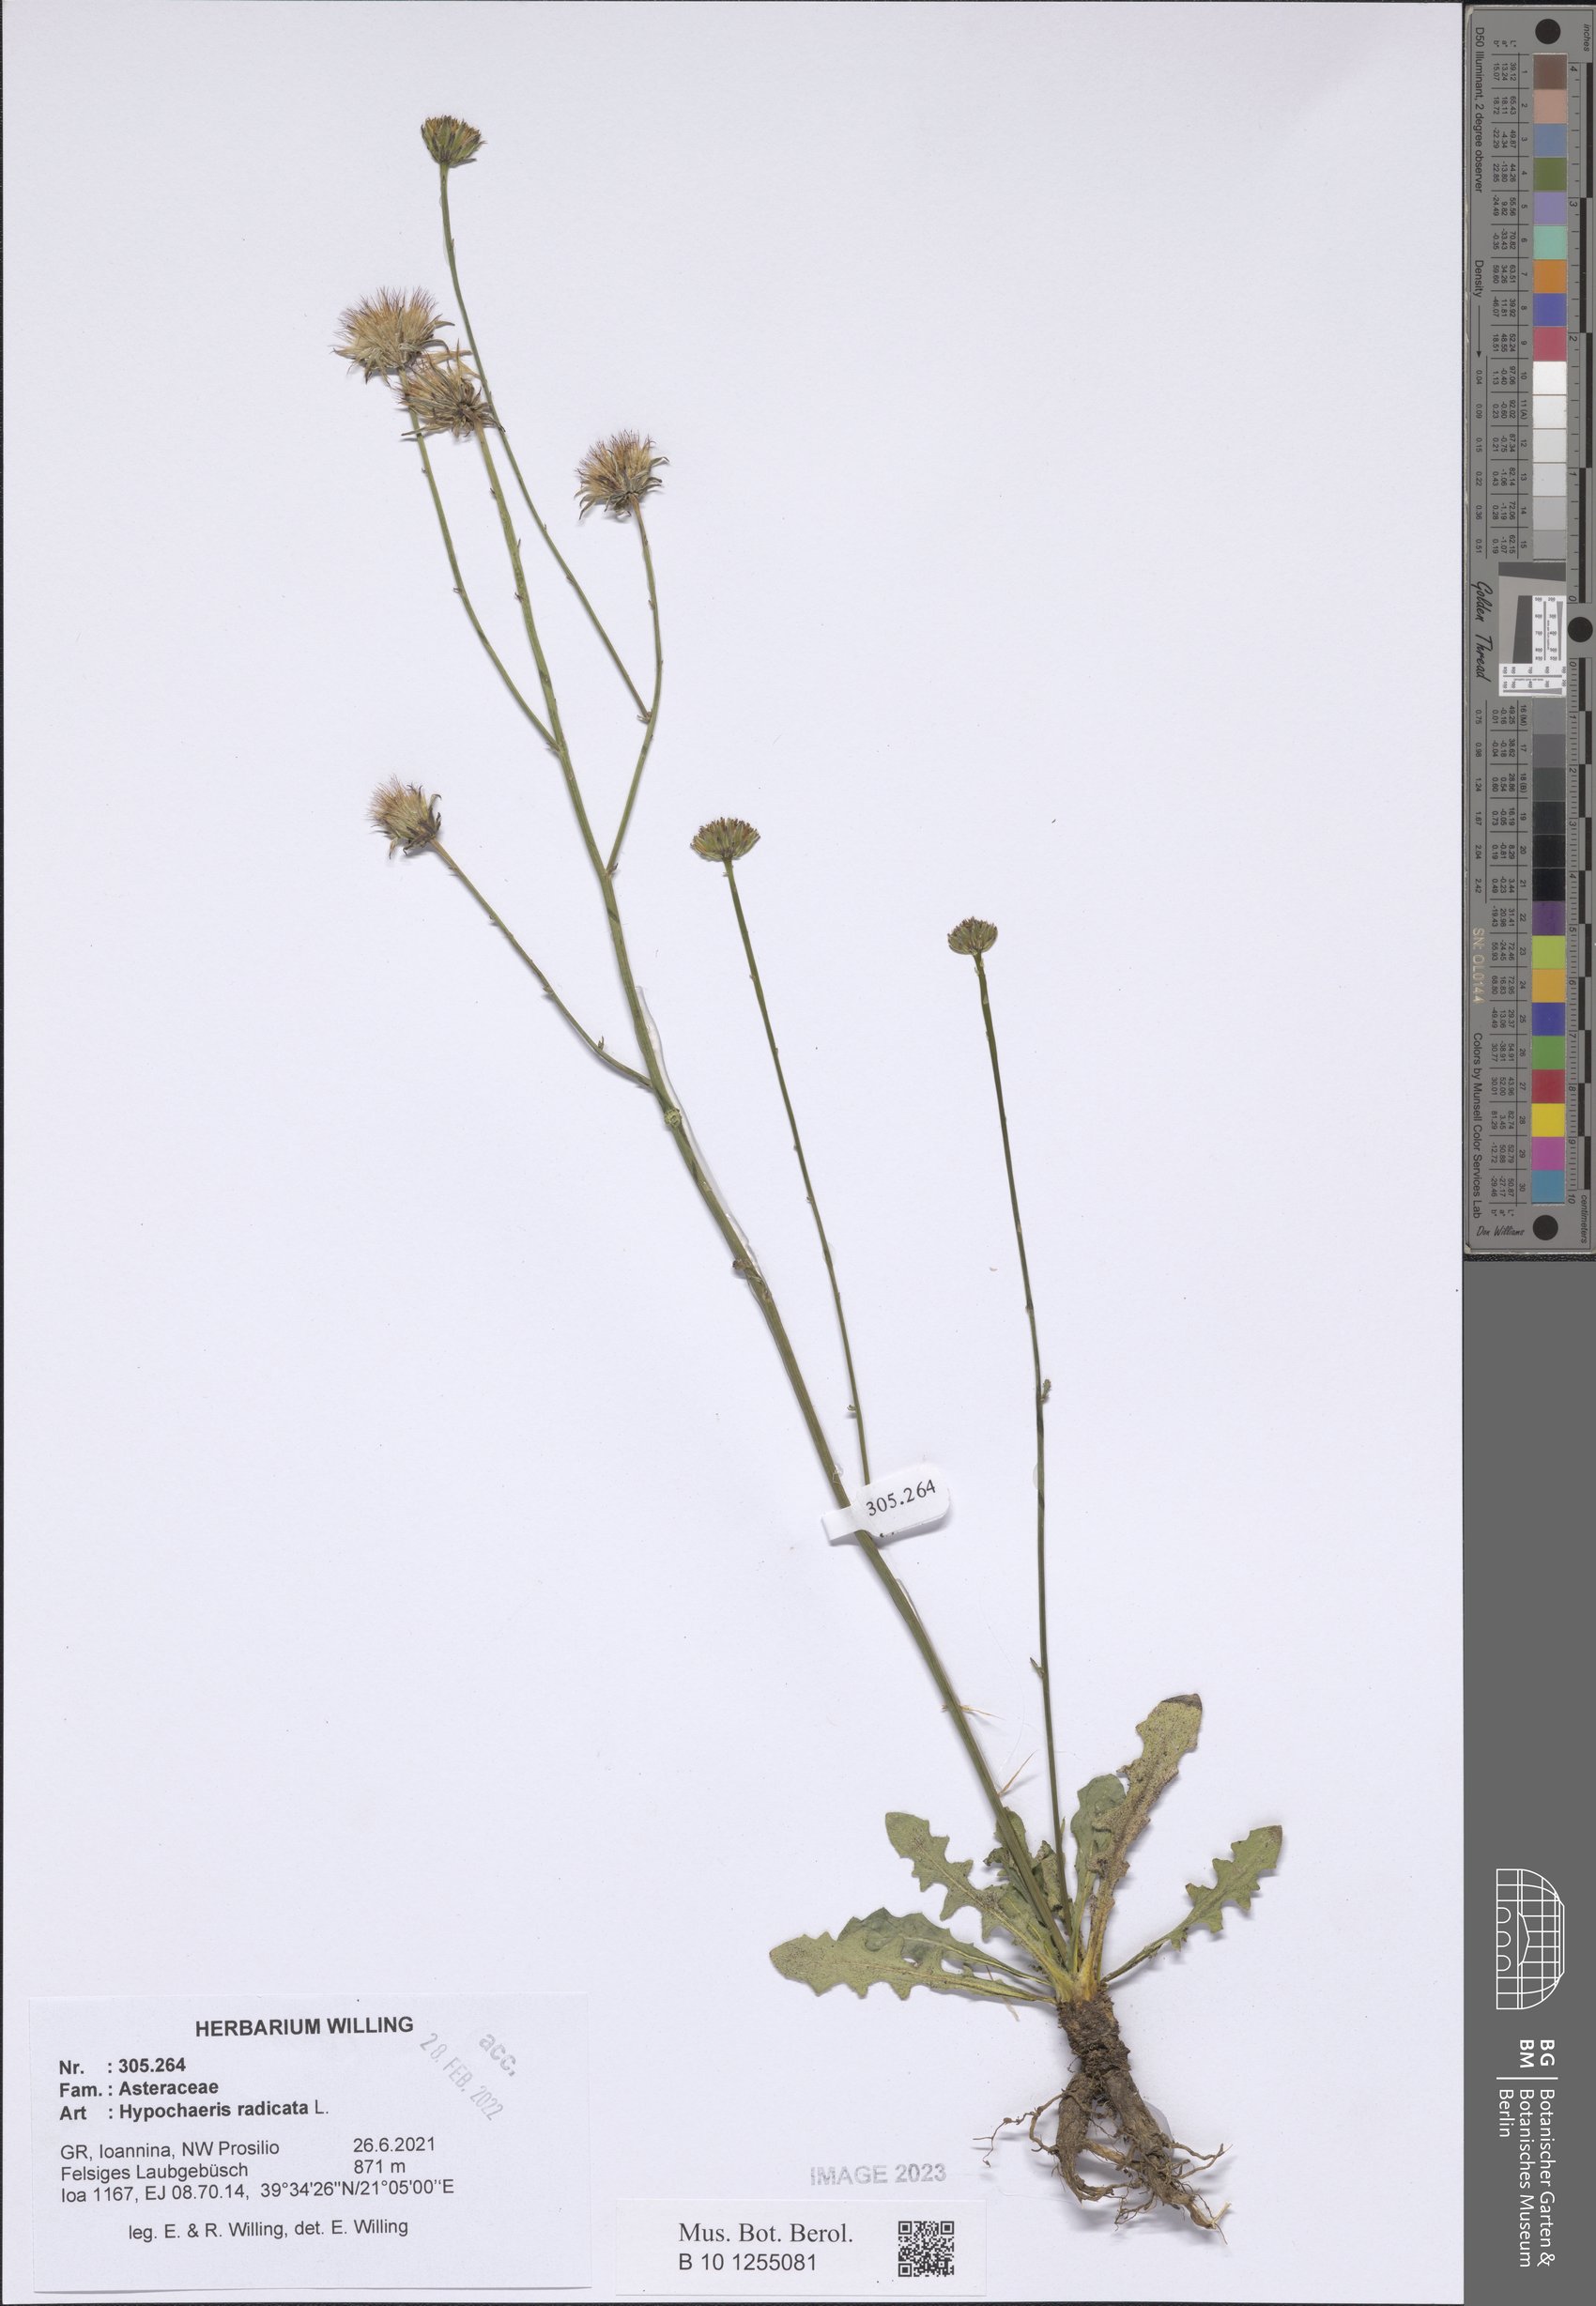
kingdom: Plantae
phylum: Tracheophyta
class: Magnoliopsida
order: Asterales
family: Asteraceae
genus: Hypochaeris
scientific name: Hypochaeris radicata
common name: Flatweed
